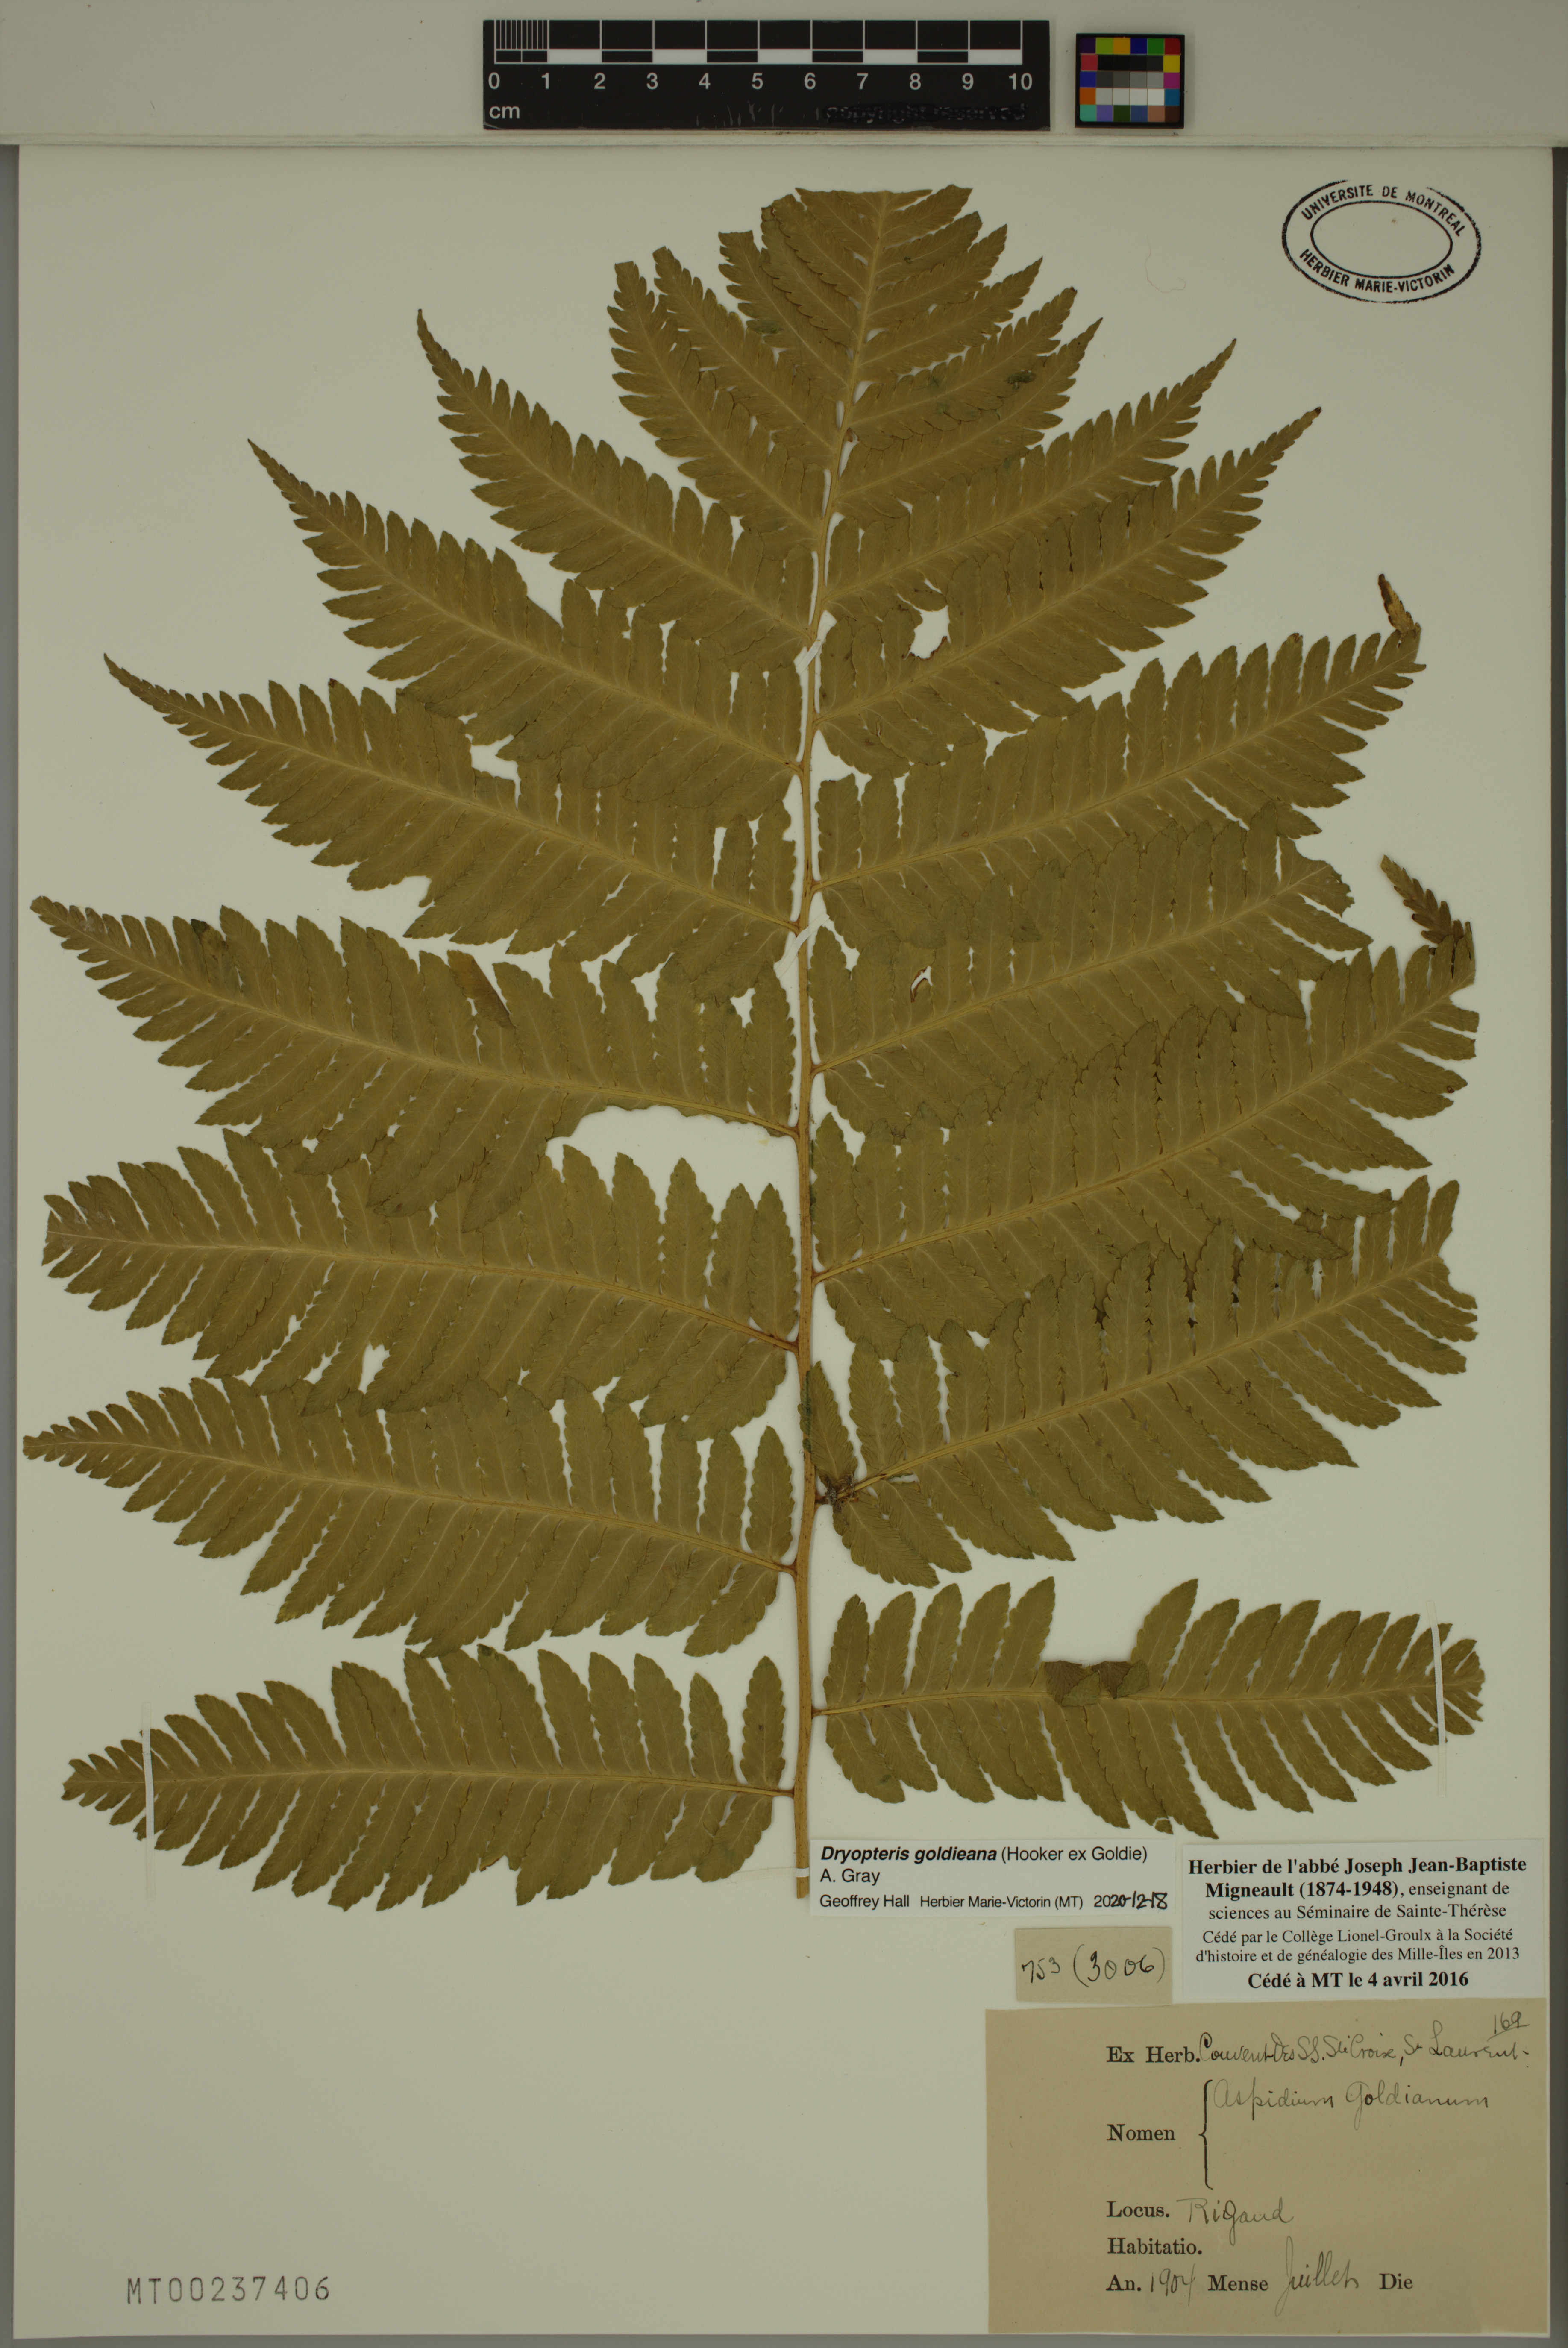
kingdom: Plantae
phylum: Tracheophyta
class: Polypodiopsida
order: Polypodiales
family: Dryopteridaceae
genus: Dryopteris
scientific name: Dryopteris goldieana
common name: Goldie's fern
